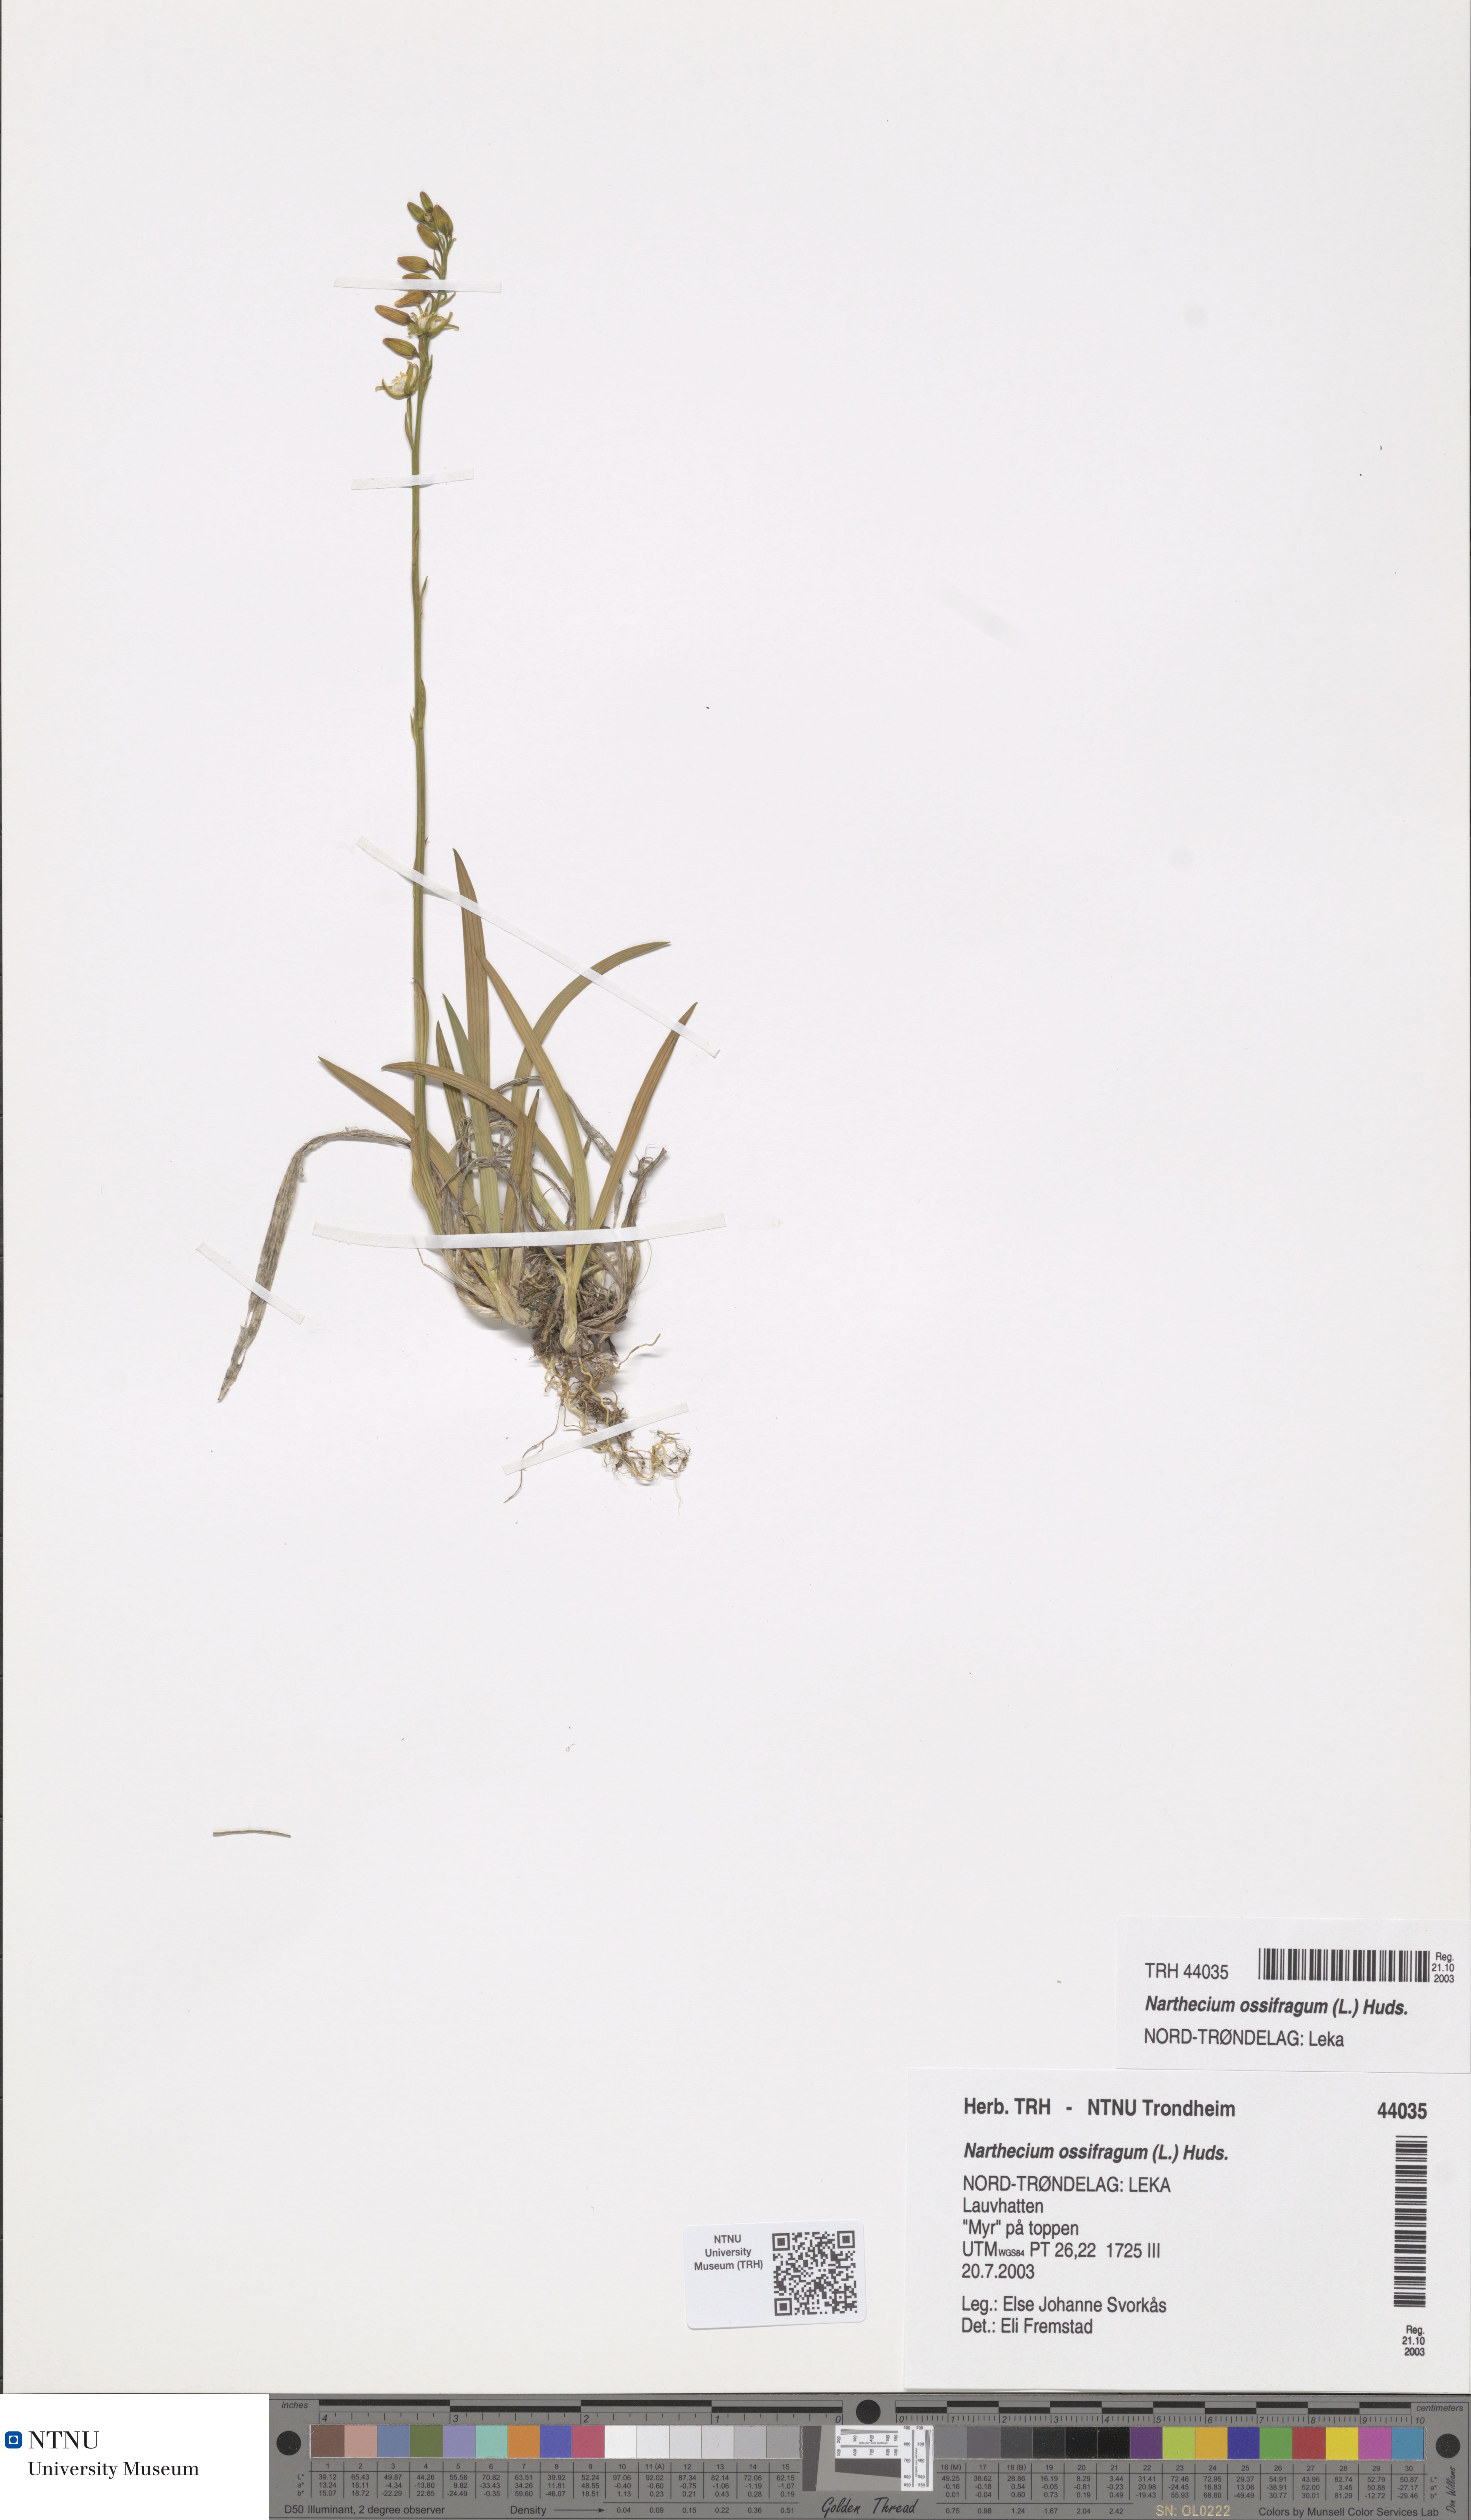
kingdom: Plantae
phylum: Tracheophyta
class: Liliopsida
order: Dioscoreales
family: Nartheciaceae
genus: Narthecium
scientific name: Narthecium ossifragum
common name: Bog asphodel
